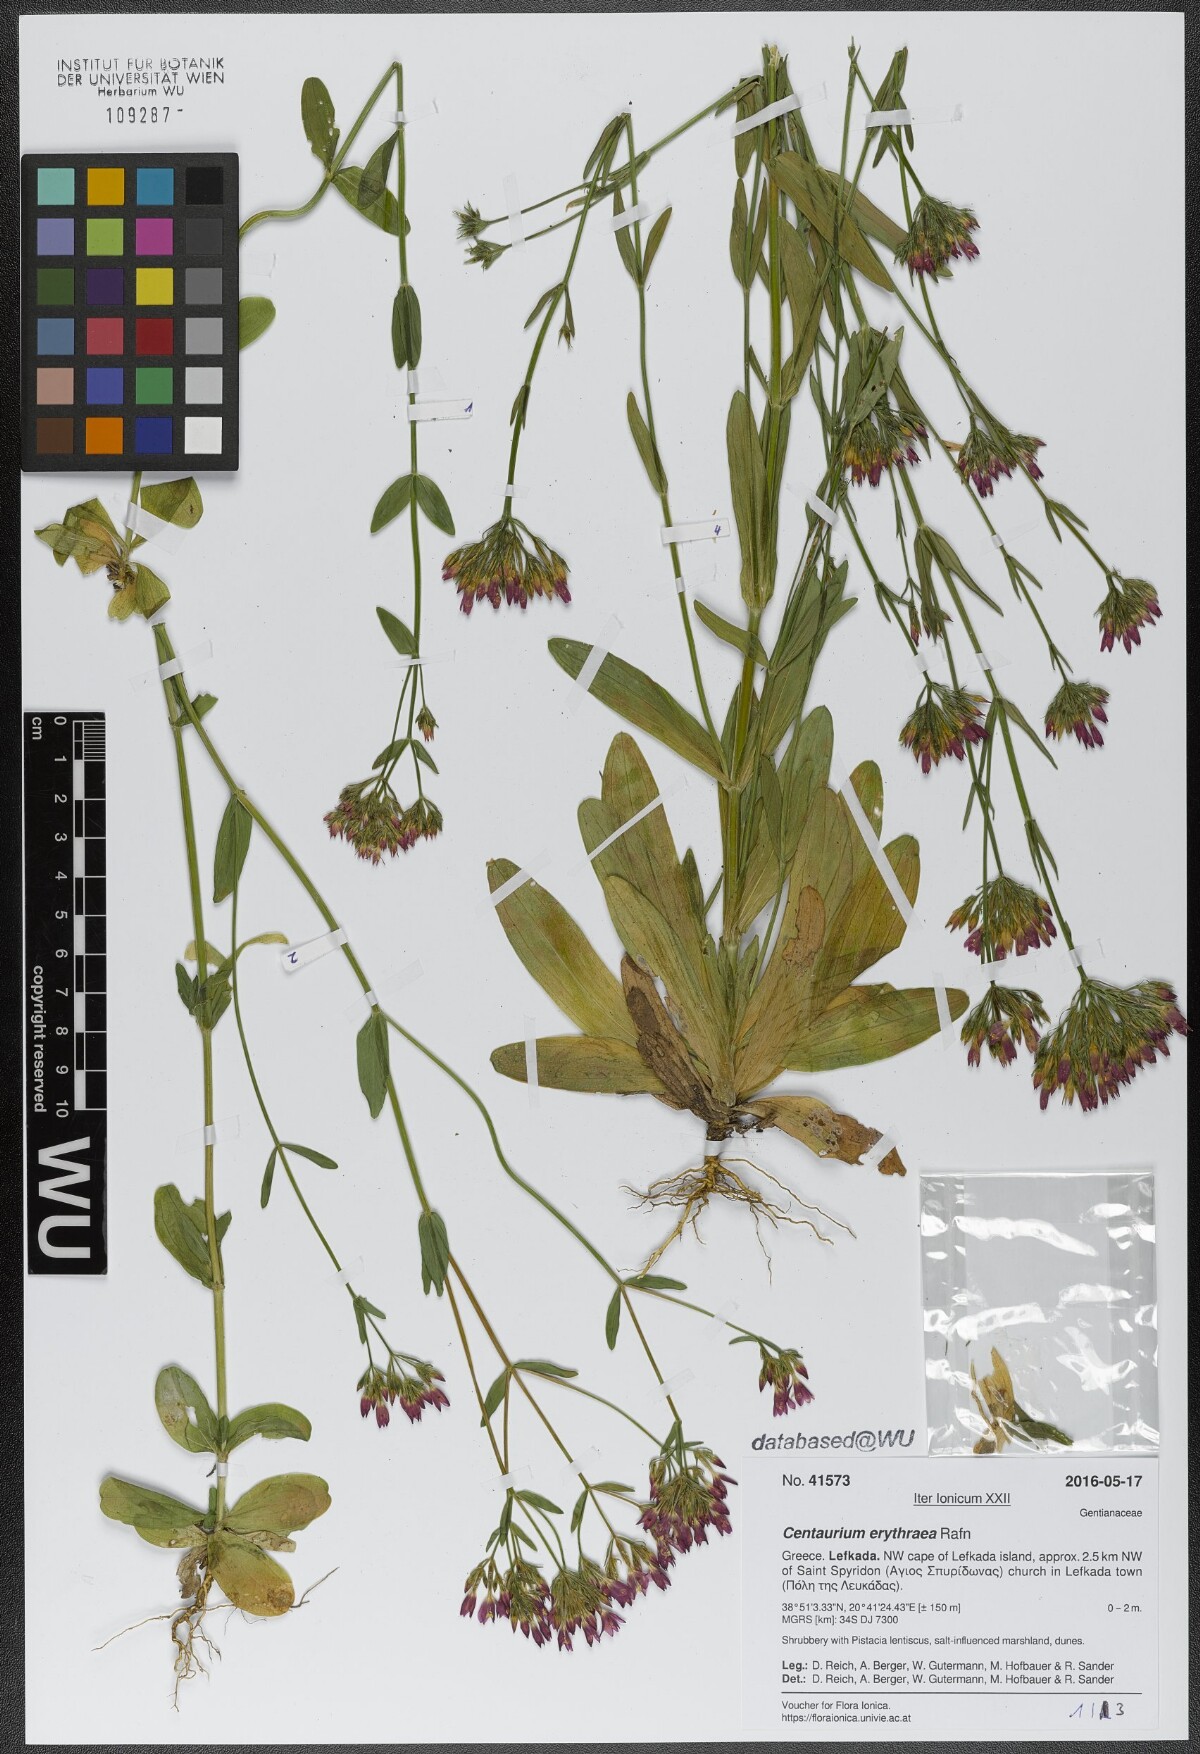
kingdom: Plantae
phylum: Tracheophyta
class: Magnoliopsida
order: Gentianales
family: Gentianaceae
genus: Centaurium
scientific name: Centaurium erythraea
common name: Common centaury
